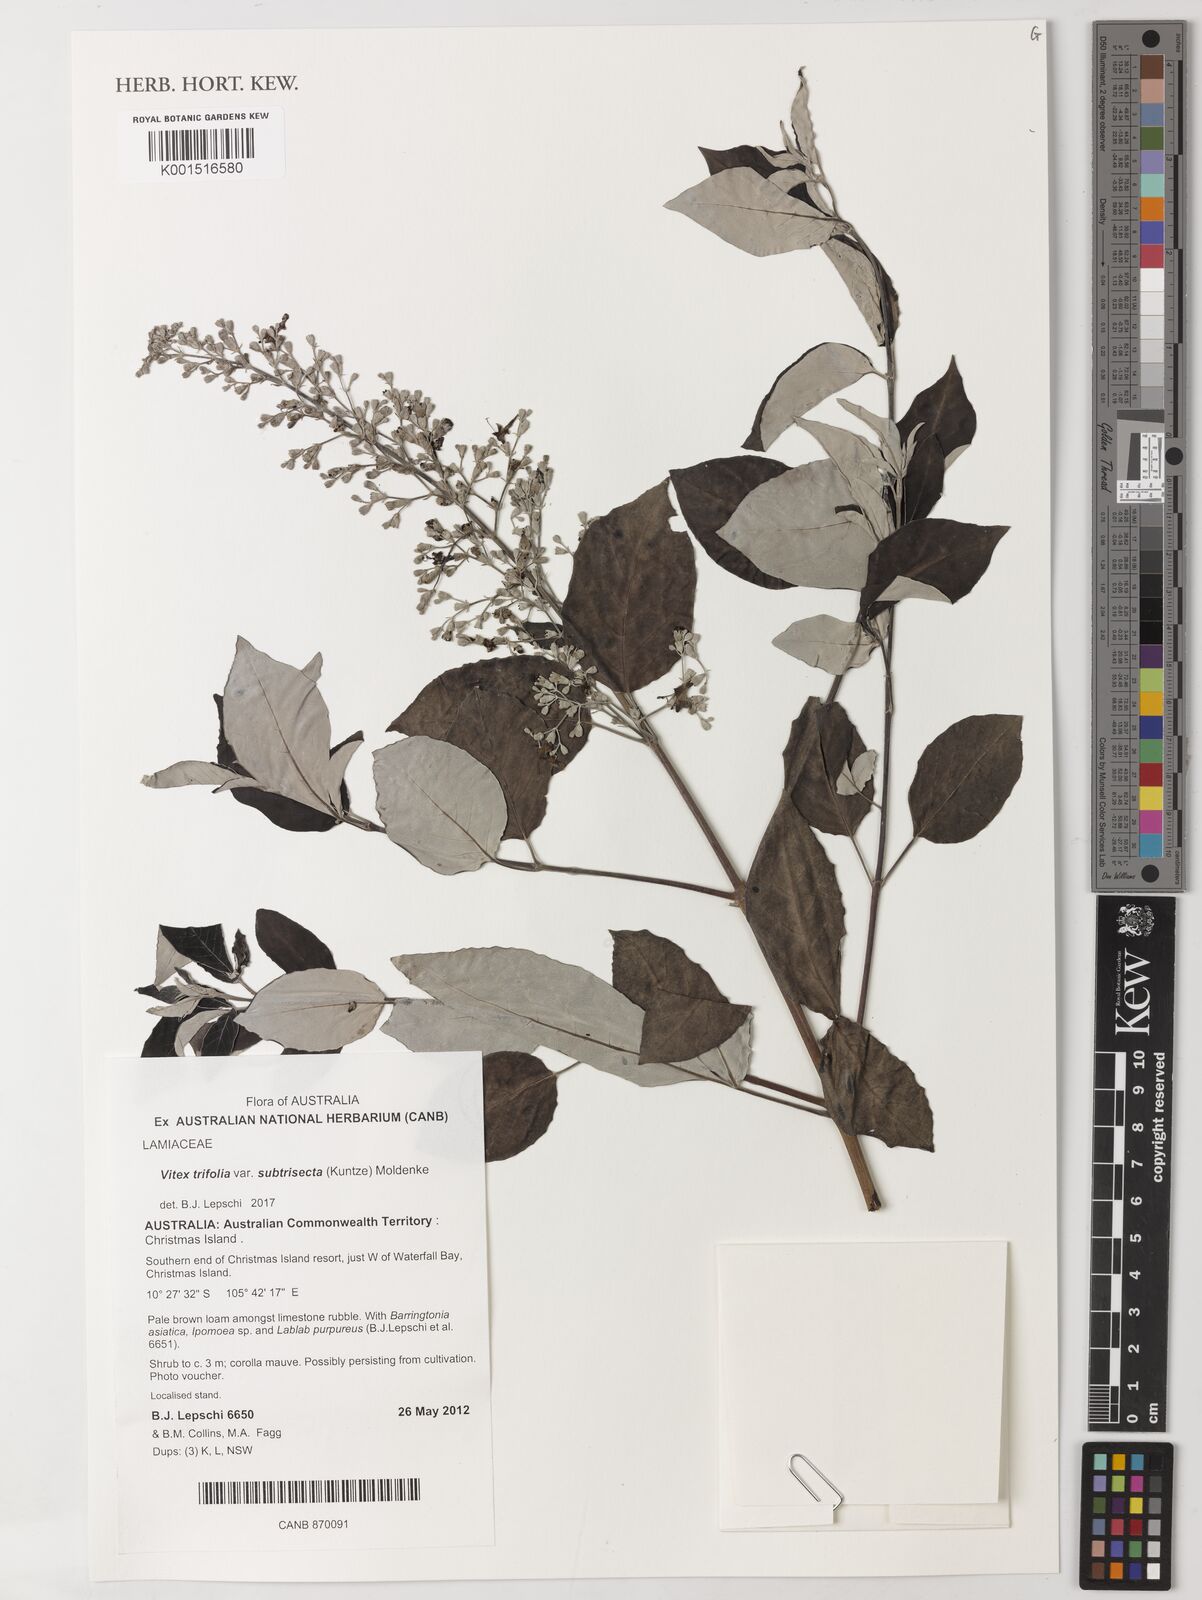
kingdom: Plantae
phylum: Tracheophyta
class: Magnoliopsida
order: Lamiales
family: Lamiaceae
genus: Vitex
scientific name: Vitex trifolia
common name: Simpleleaf chastetree
